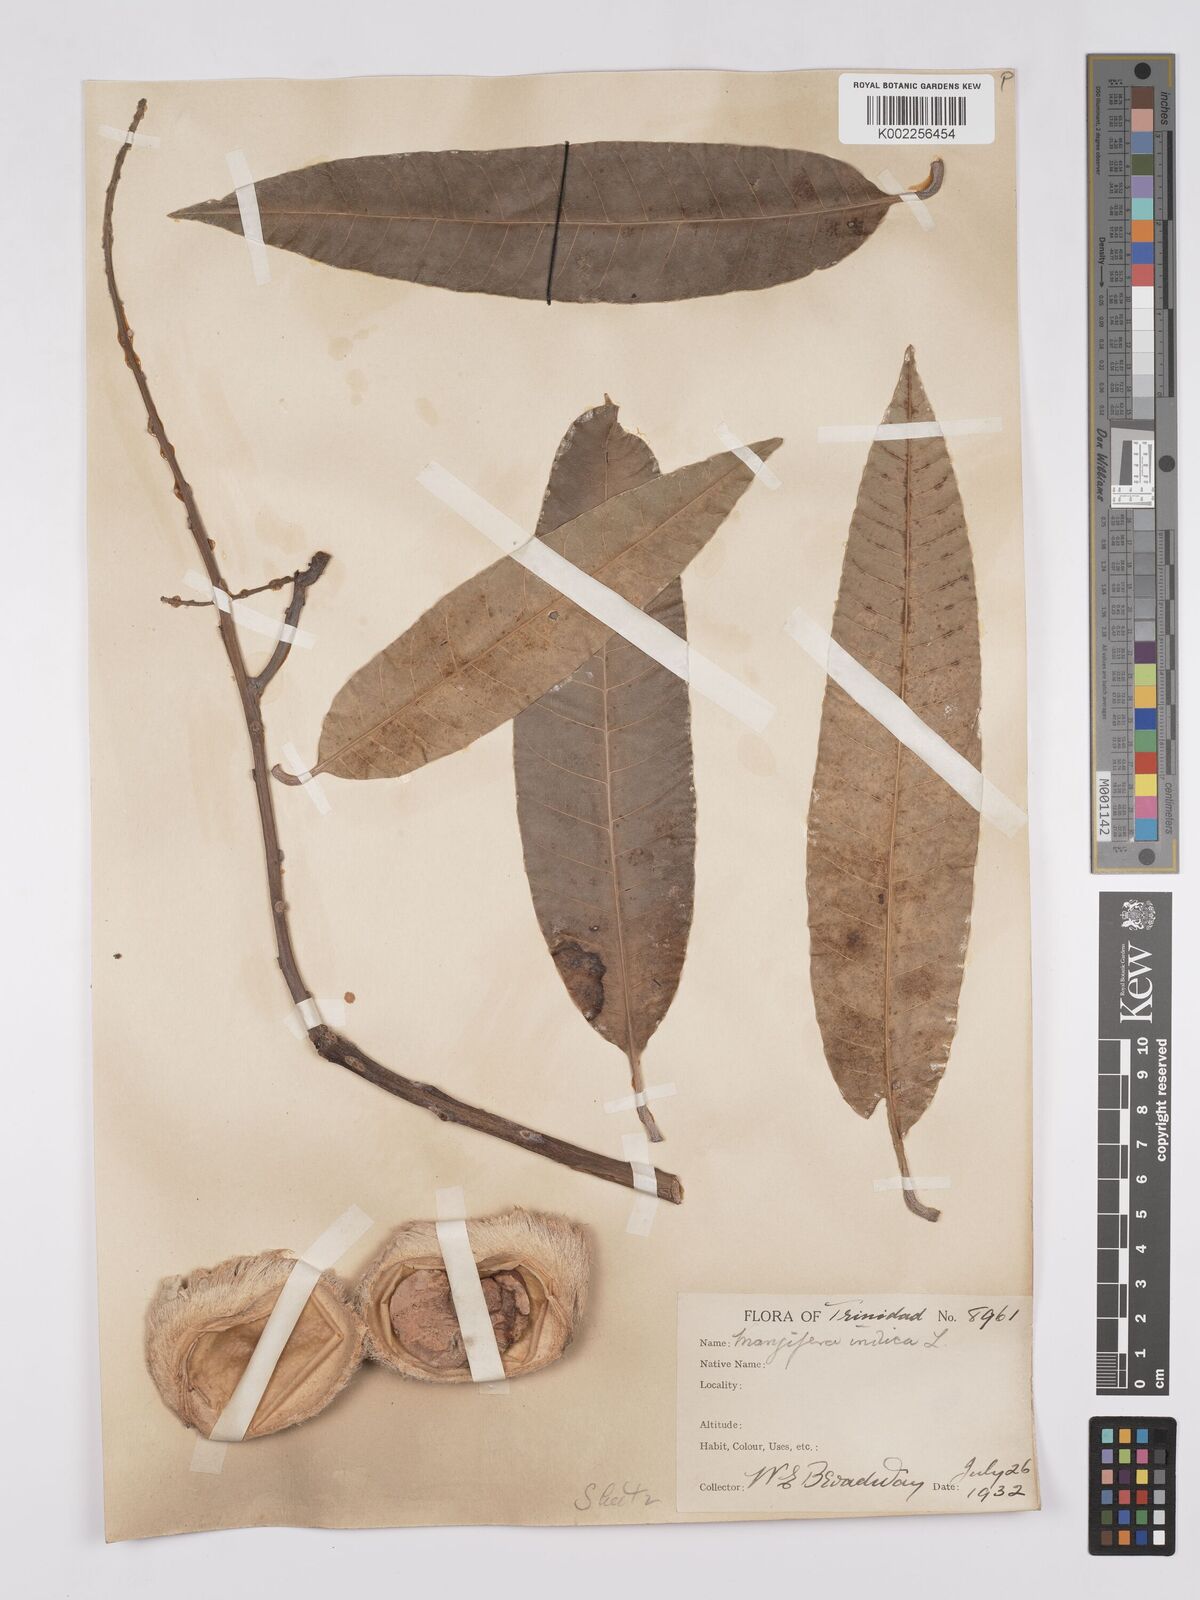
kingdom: Plantae
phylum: Tracheophyta
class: Magnoliopsida
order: Sapindales
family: Anacardiaceae
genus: Mangifera
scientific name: Mangifera indica
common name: Mango
